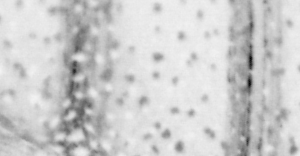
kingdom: Animalia
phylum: Chordata
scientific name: Chordata
